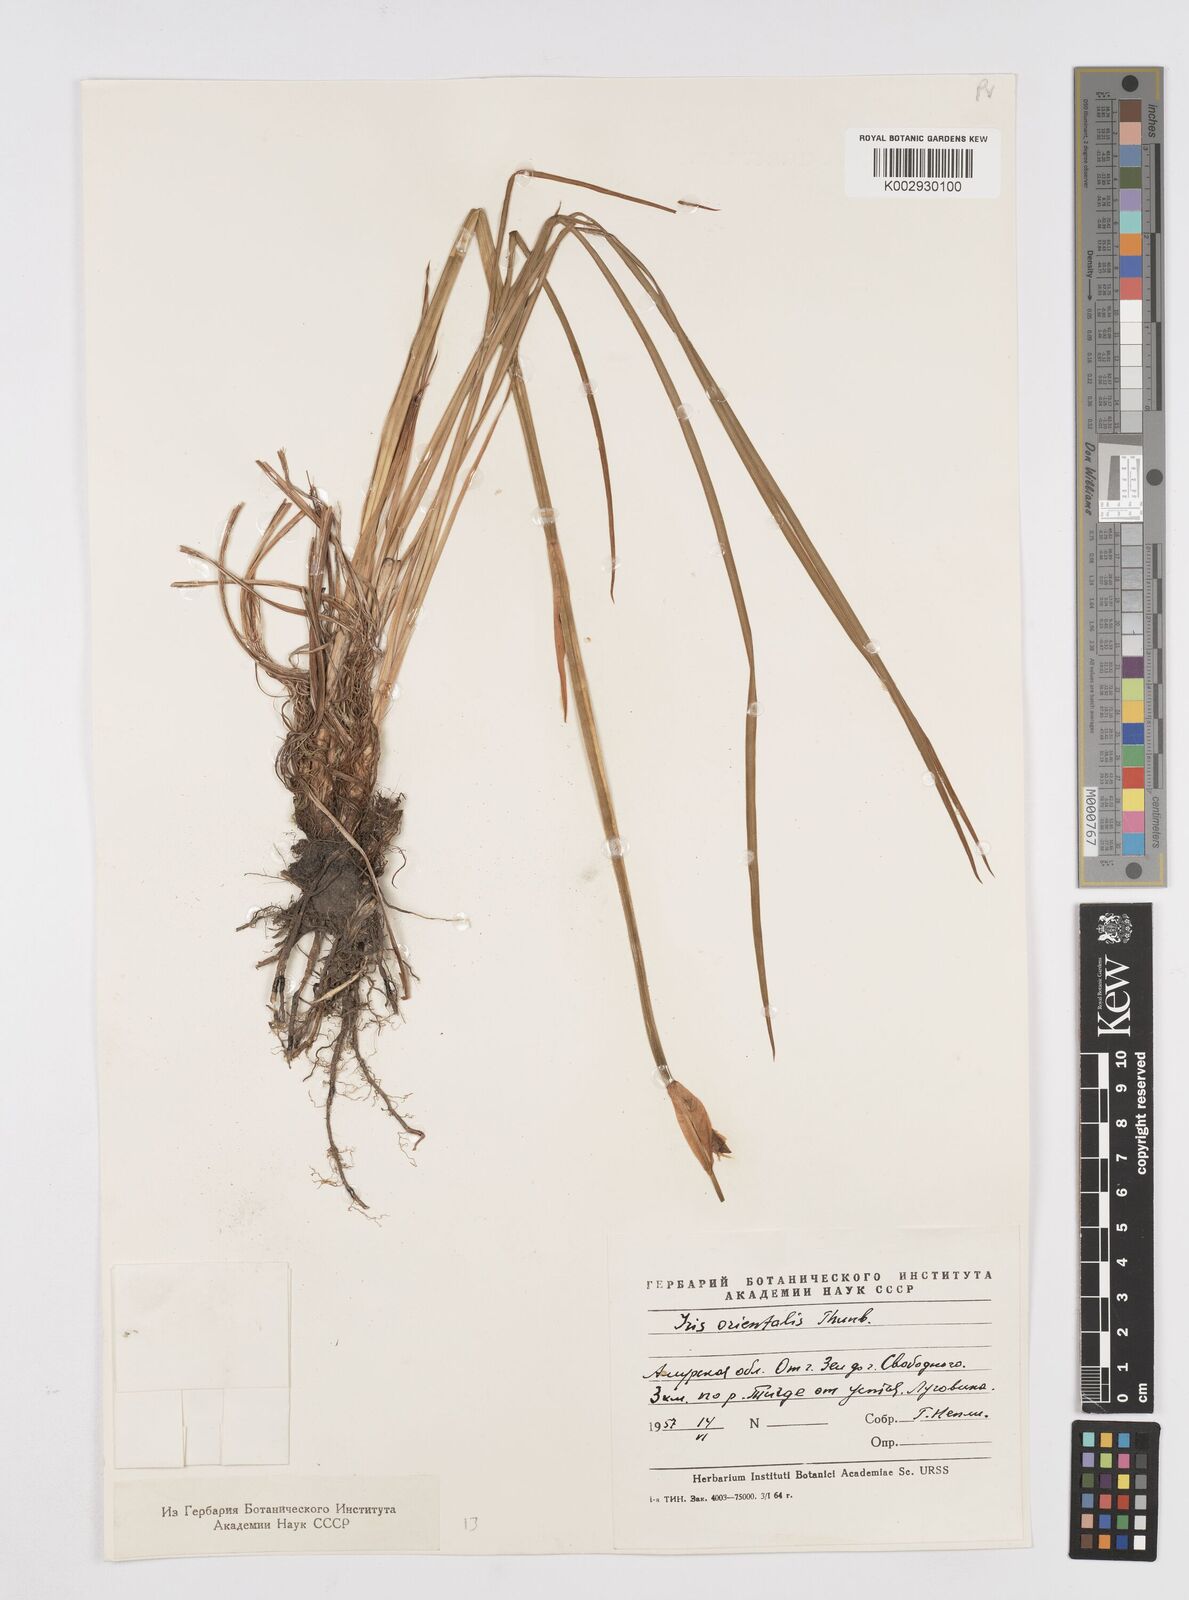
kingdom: Plantae
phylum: Tracheophyta
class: Liliopsida
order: Asparagales
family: Iridaceae
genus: Iris
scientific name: Iris sanguinea
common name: Blood iris
